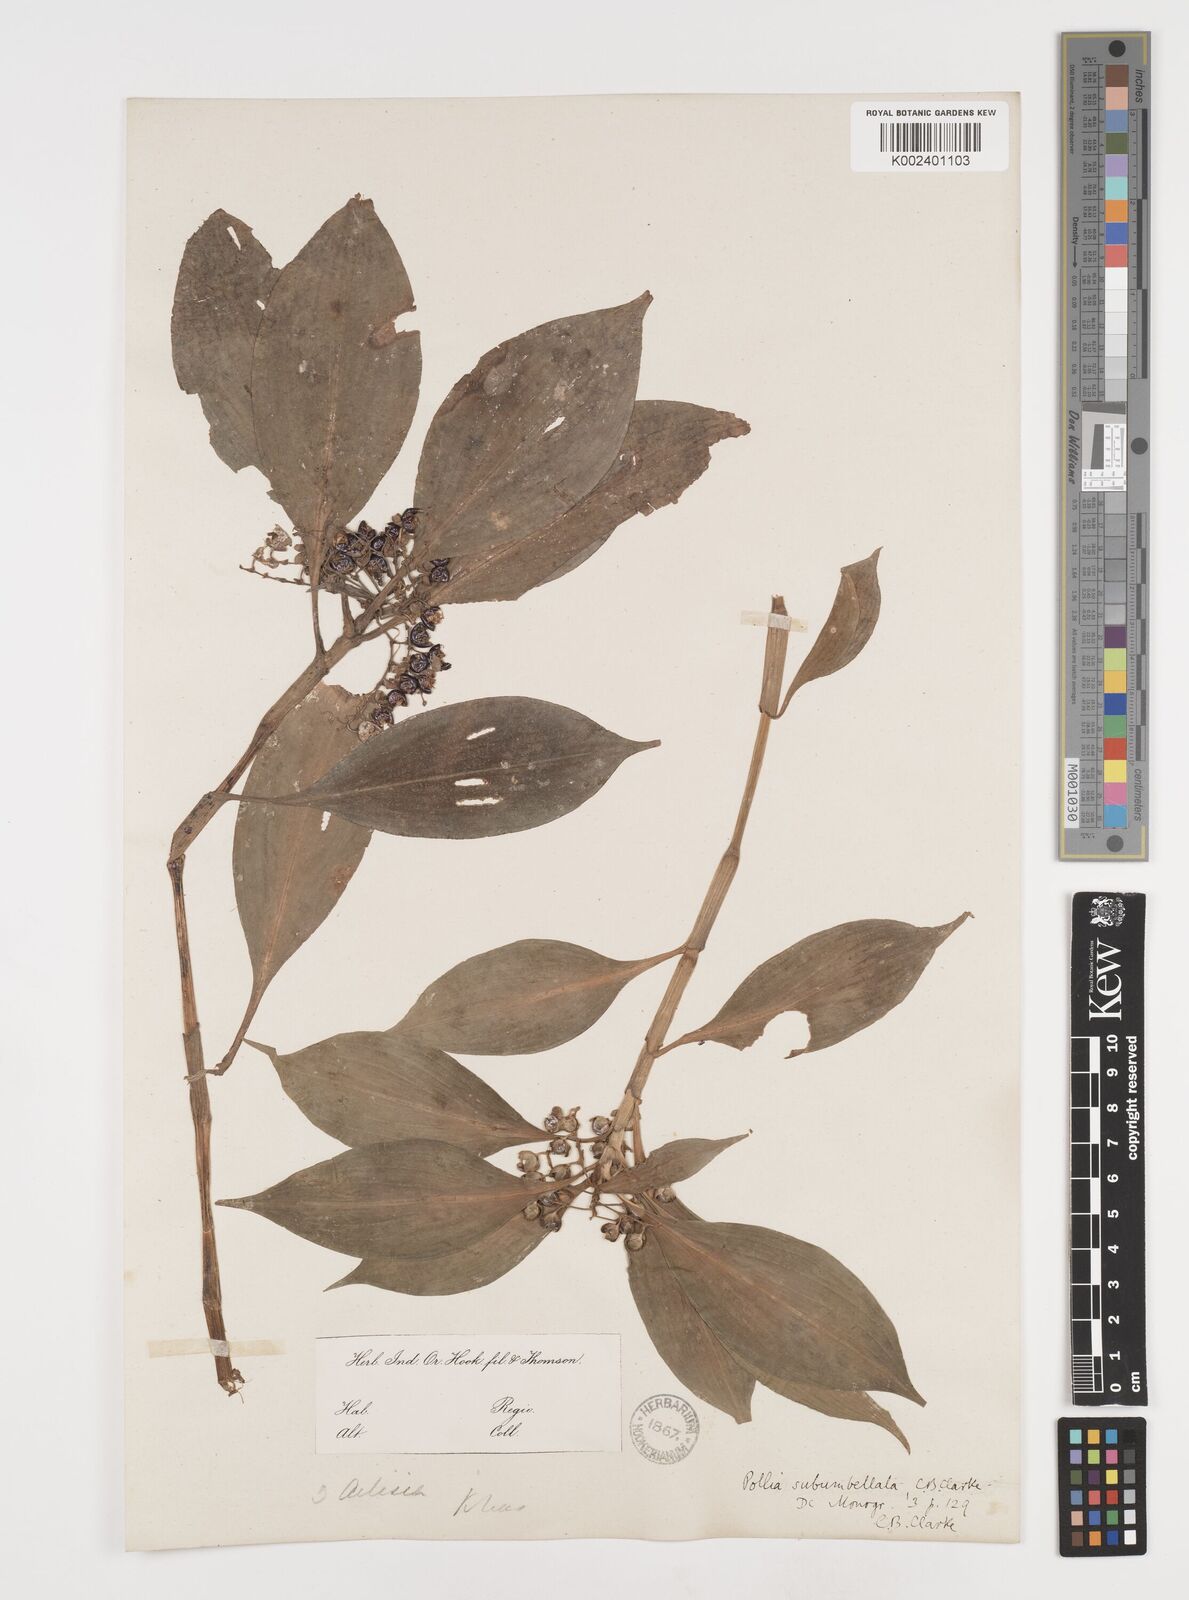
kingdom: Plantae
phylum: Tracheophyta
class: Liliopsida
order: Commelinales
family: Commelinaceae
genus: Pollia
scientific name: Pollia subumbellata
